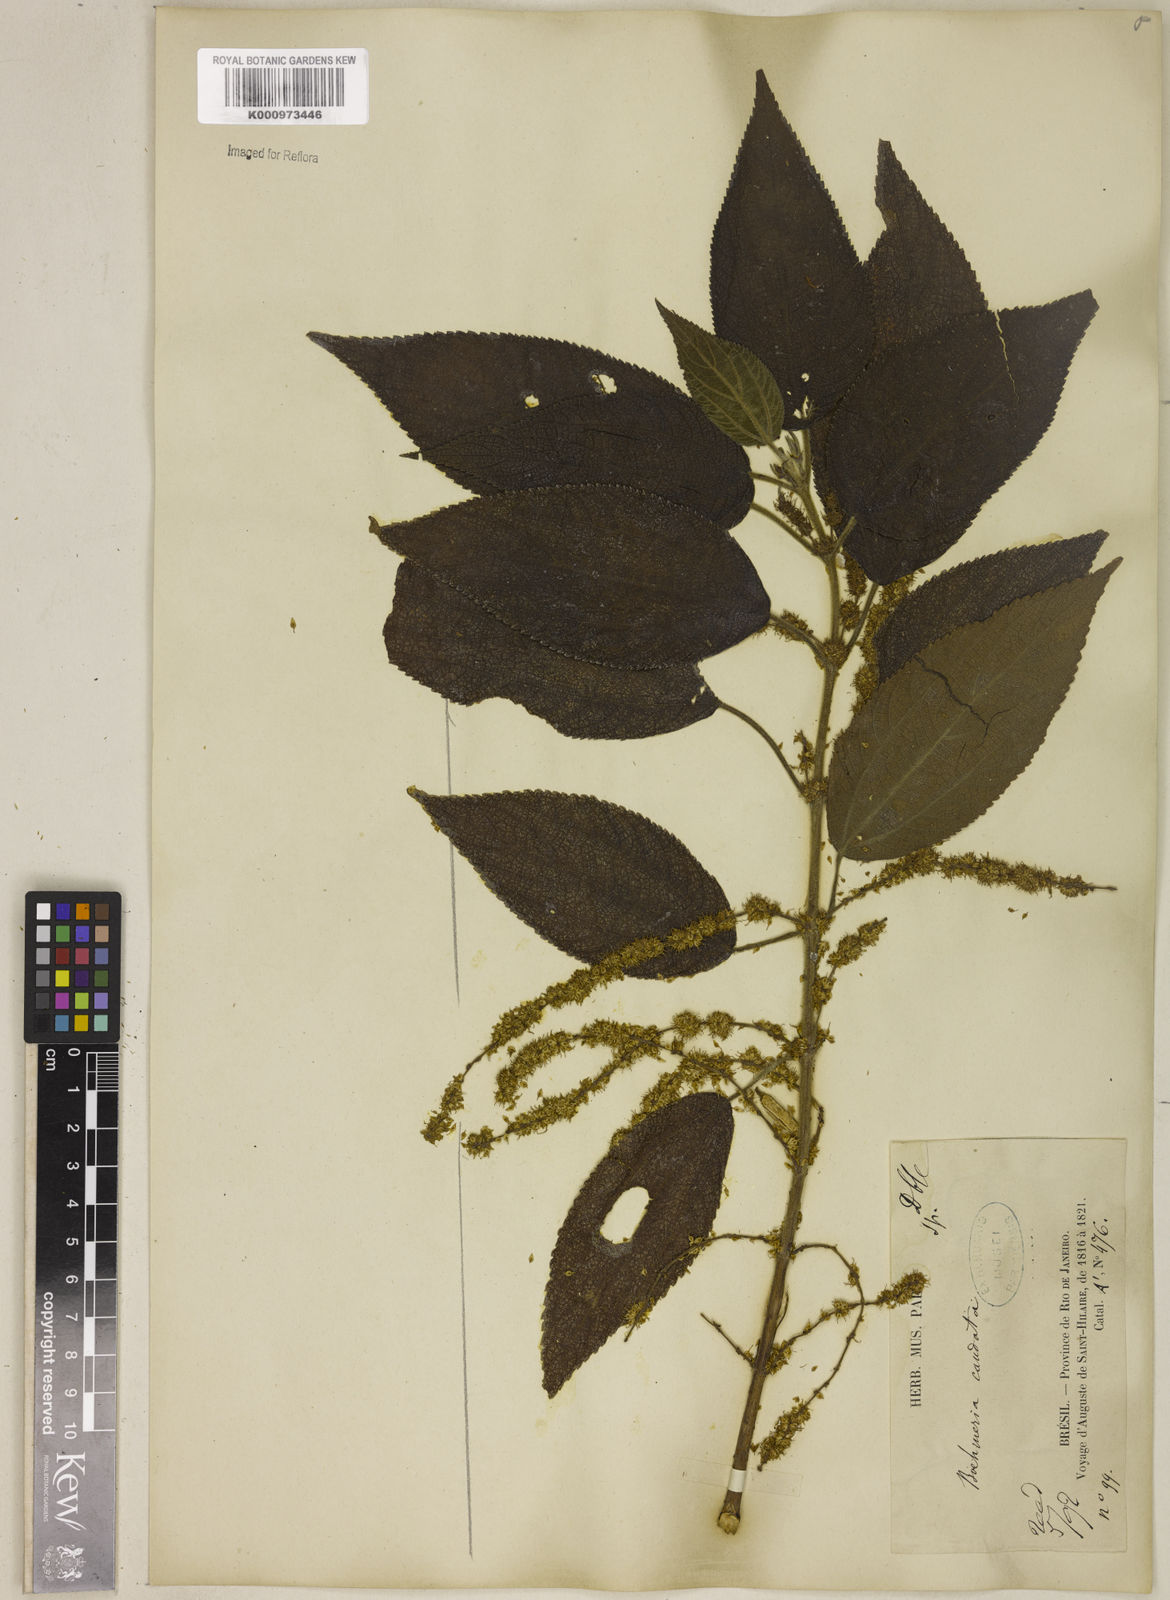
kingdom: Plantae
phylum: Tracheophyta
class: Magnoliopsida
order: Rosales
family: Urticaceae
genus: Boehmeria
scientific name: Boehmeria caudata
